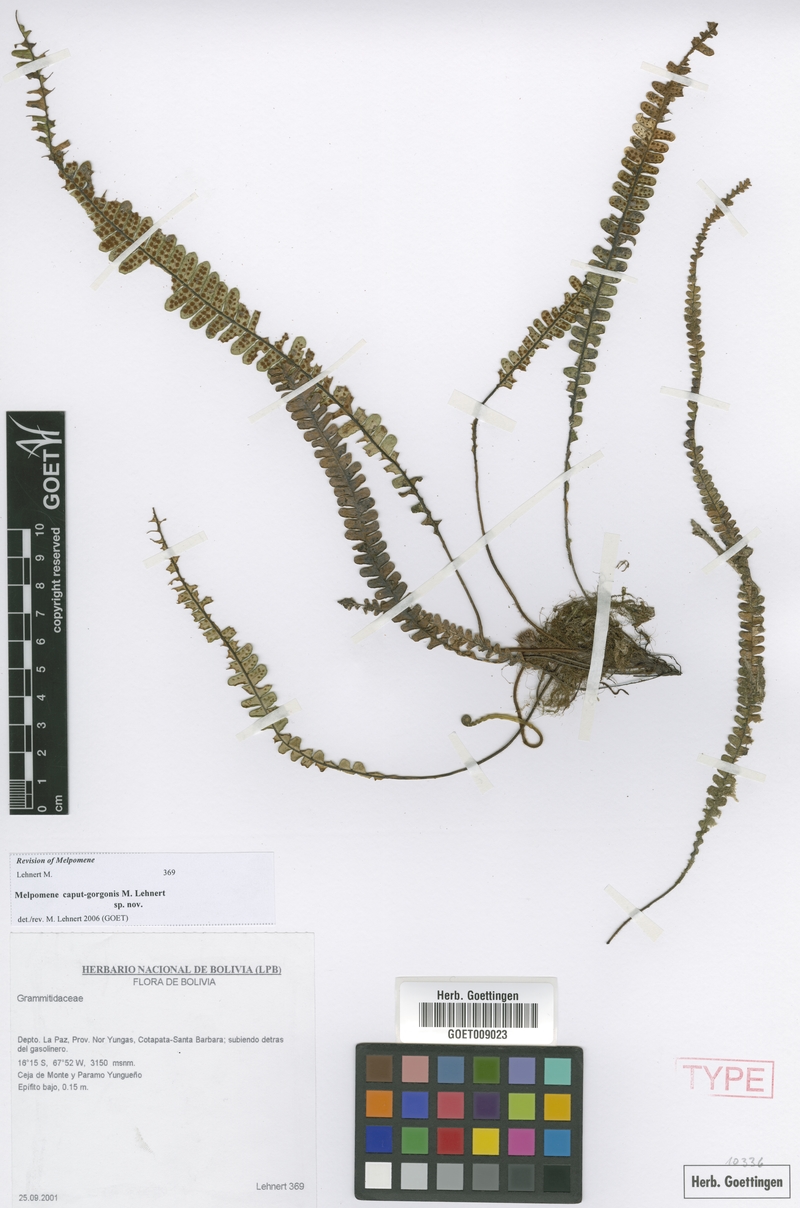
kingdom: Plantae
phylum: Tracheophyta
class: Polypodiopsida
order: Polypodiales
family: Polypodiaceae
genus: Melpomene
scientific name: Melpomene caput-gorgonis
